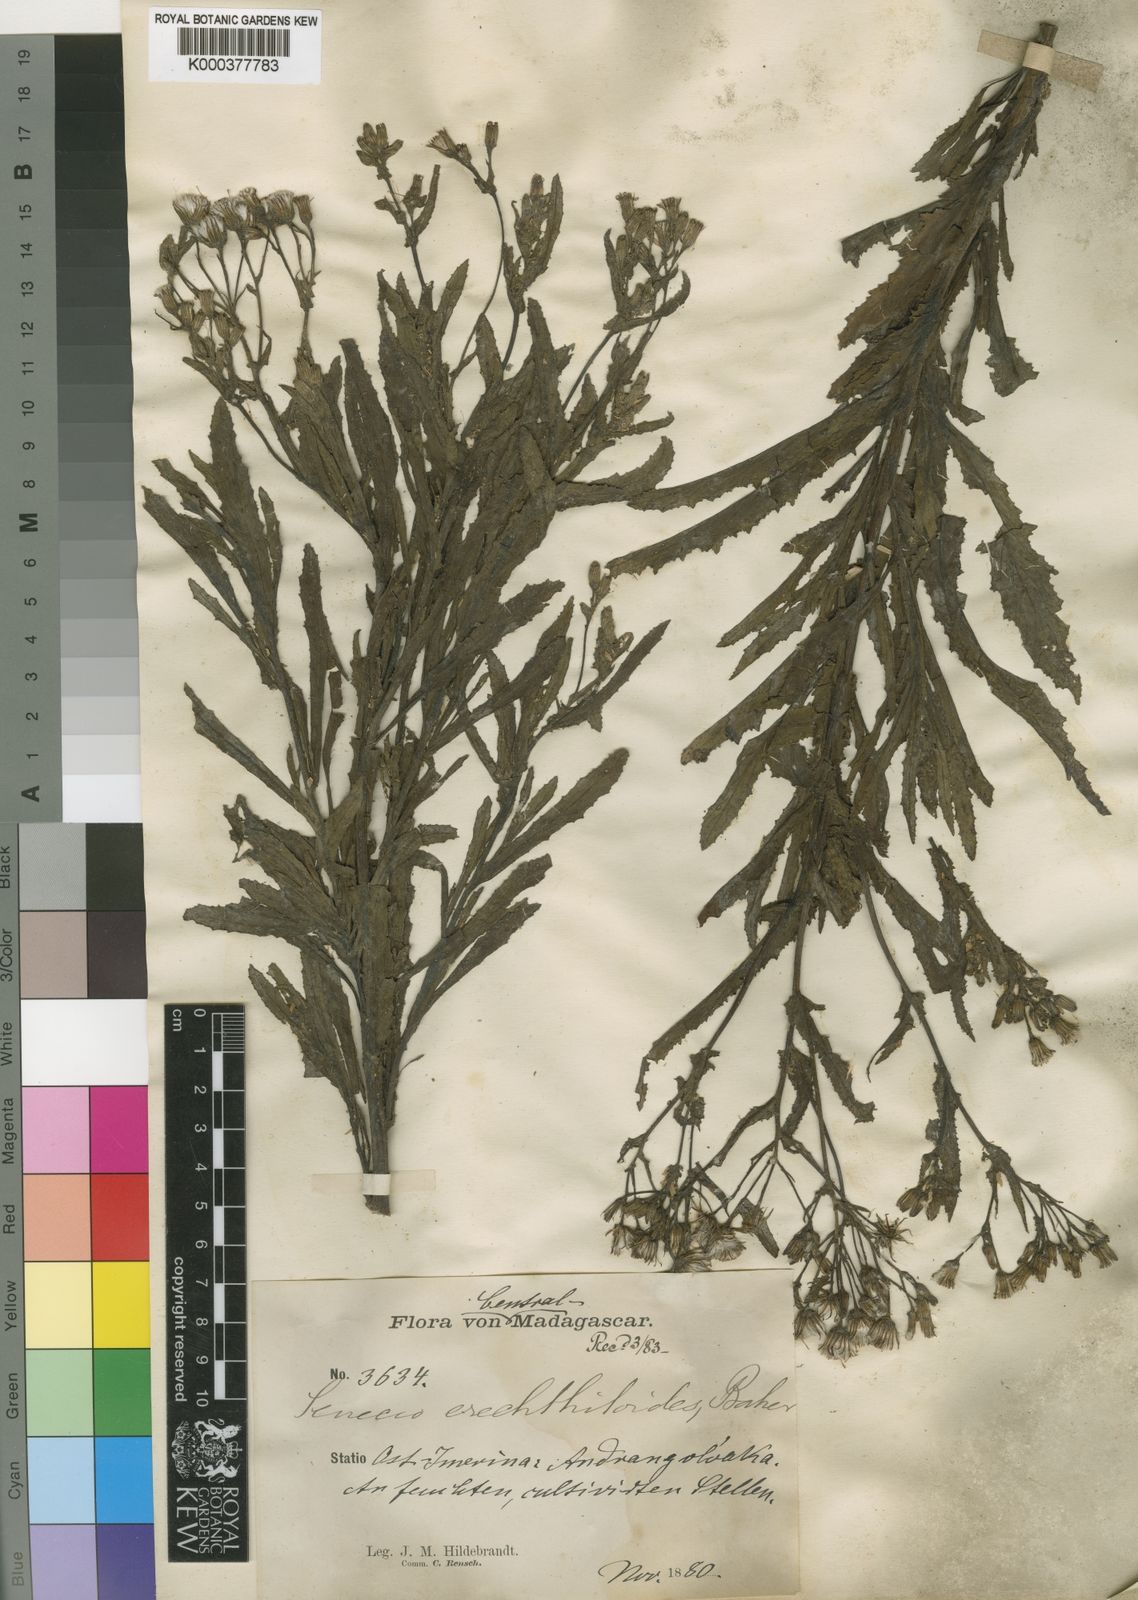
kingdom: Plantae
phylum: Tracheophyta
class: Magnoliopsida
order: Asterales
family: Asteraceae
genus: Senecio
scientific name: Senecio garnieri
